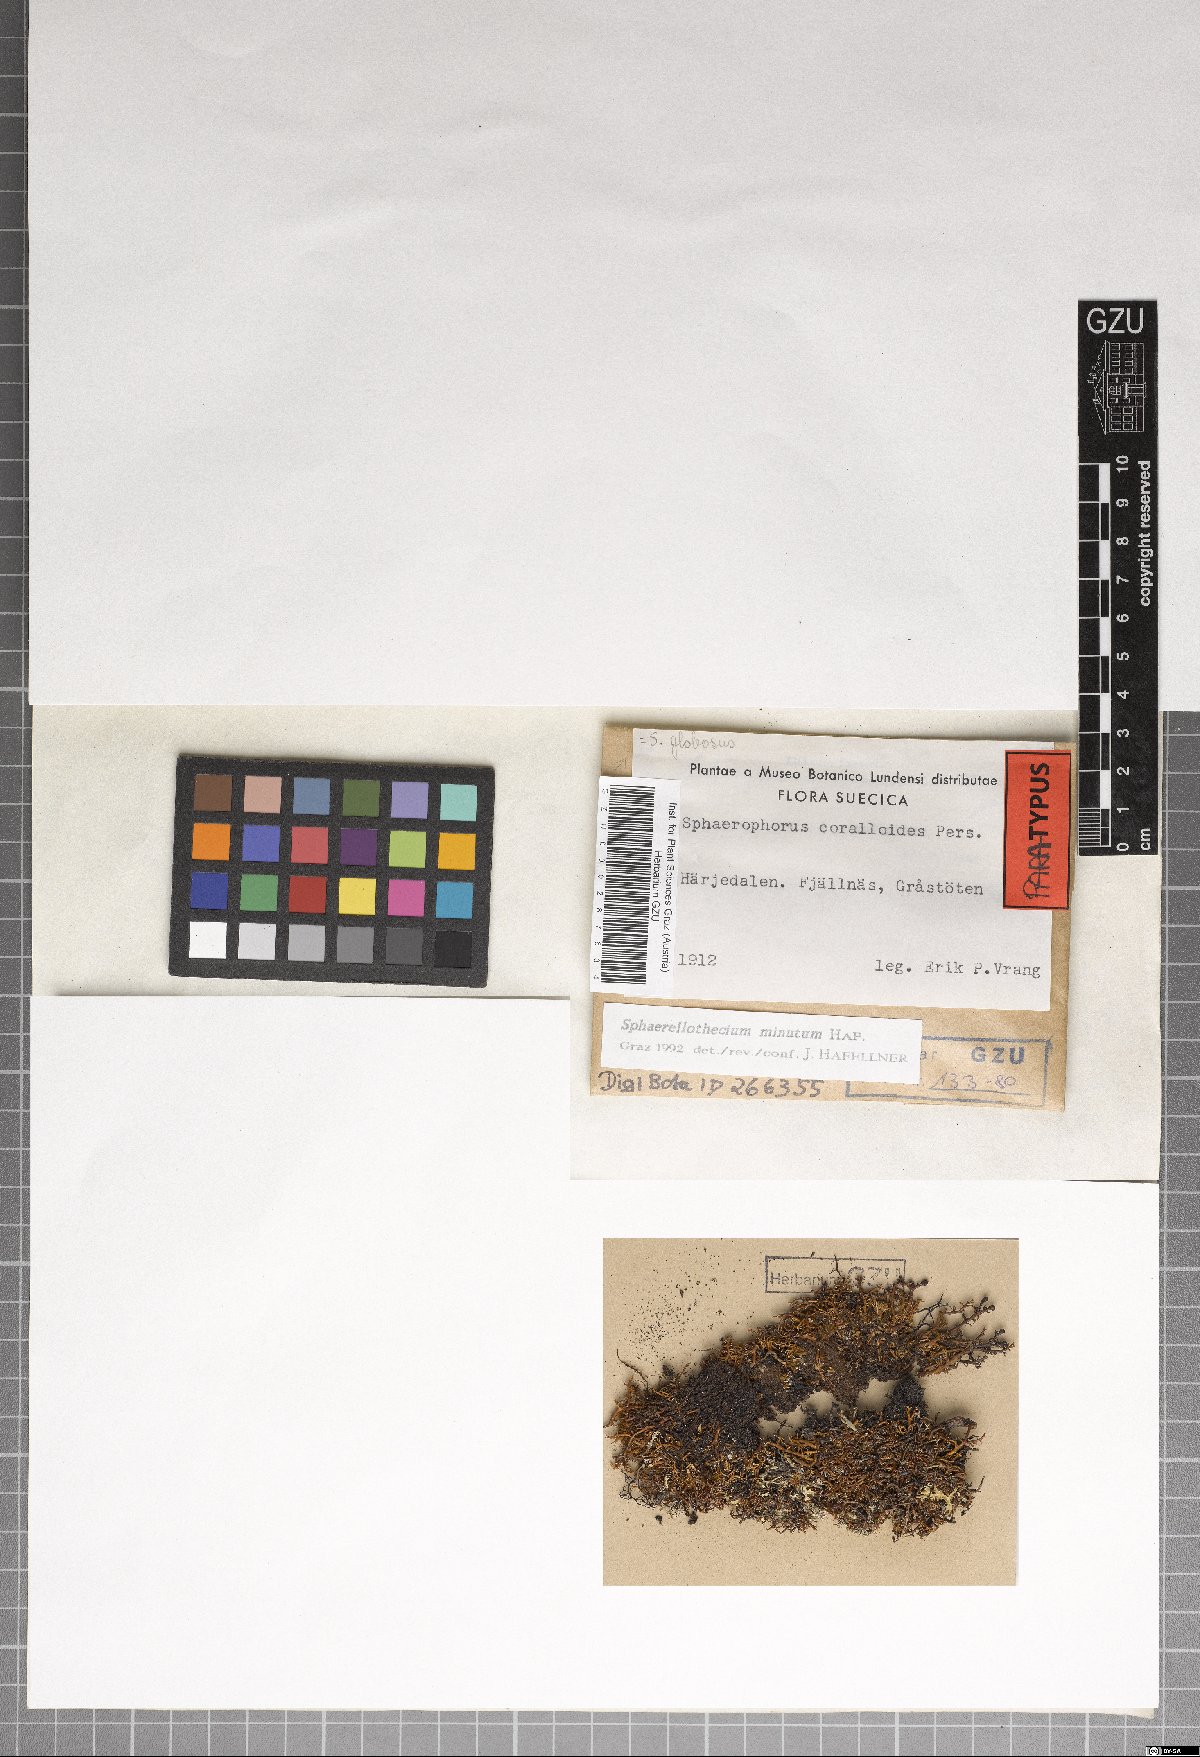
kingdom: Fungi
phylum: Ascomycota
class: Dothideomycetes
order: Mycosphaerellales
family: Mycosphaerellaceae
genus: Sphaerellothecium
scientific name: Sphaerellothecium minutum
